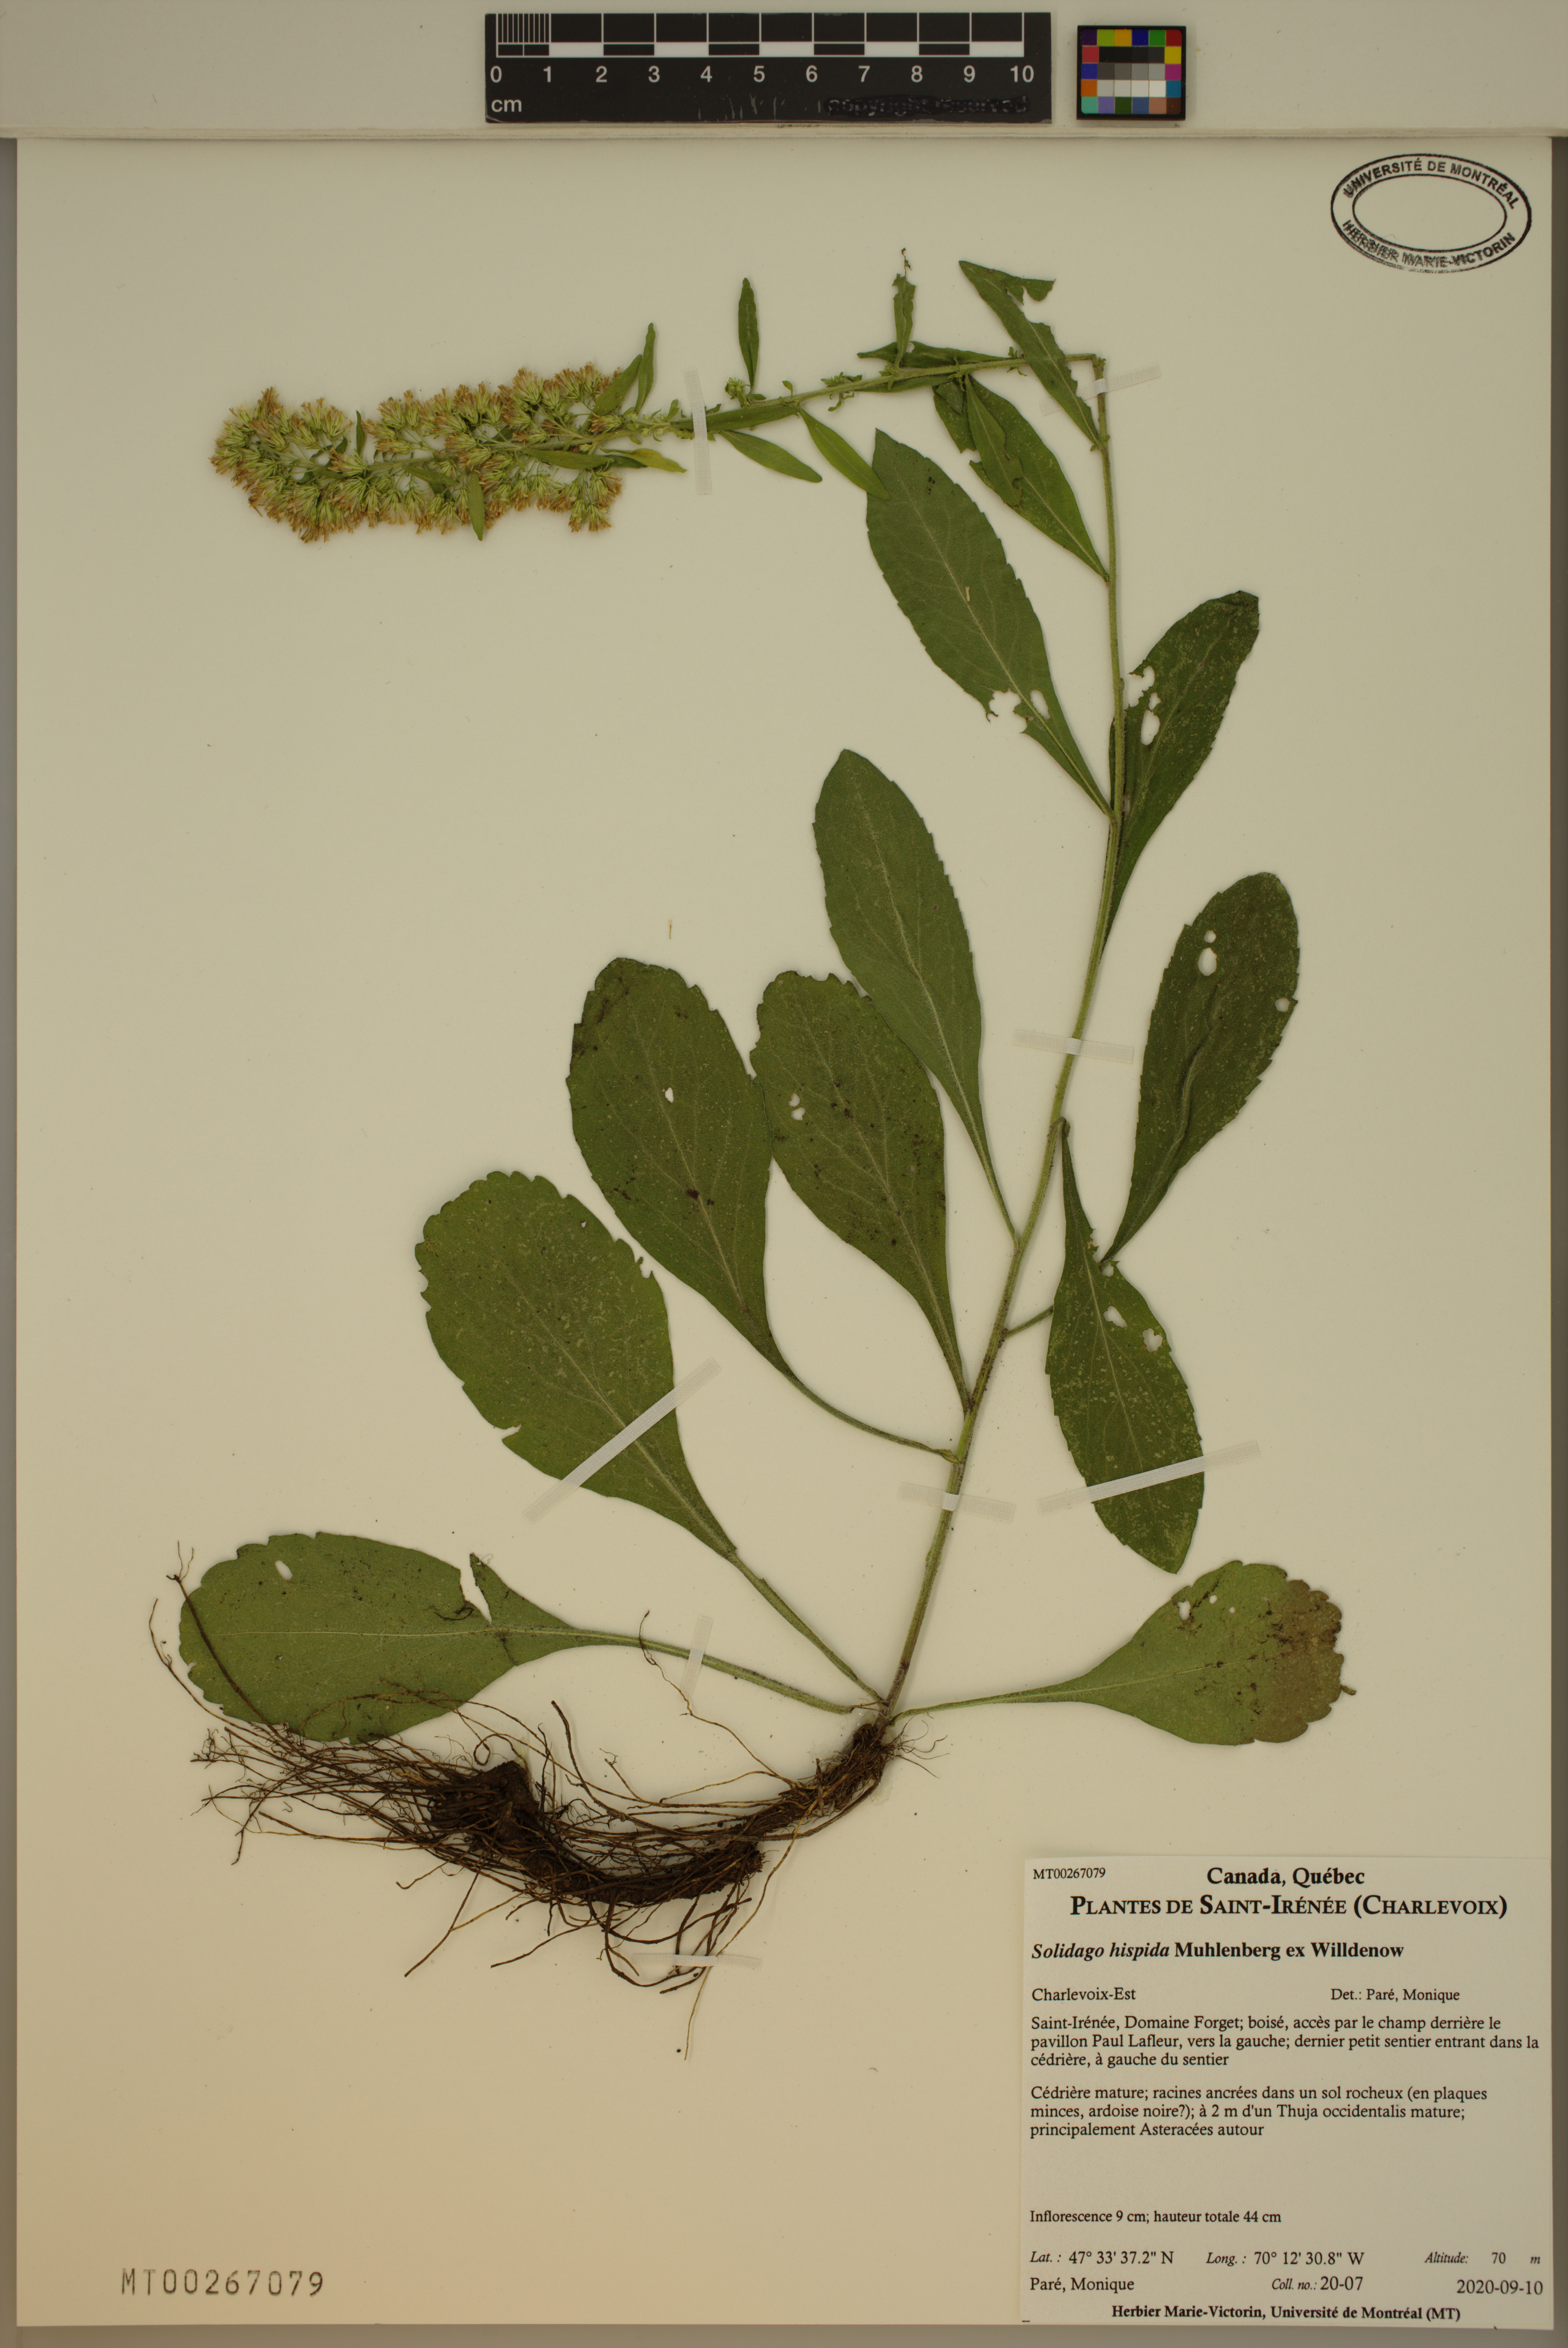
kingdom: Plantae
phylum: Tracheophyta
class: Magnoliopsida
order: Asterales
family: Asteraceae
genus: Solidago
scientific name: Solidago hispida
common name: Hairy goldenrod
